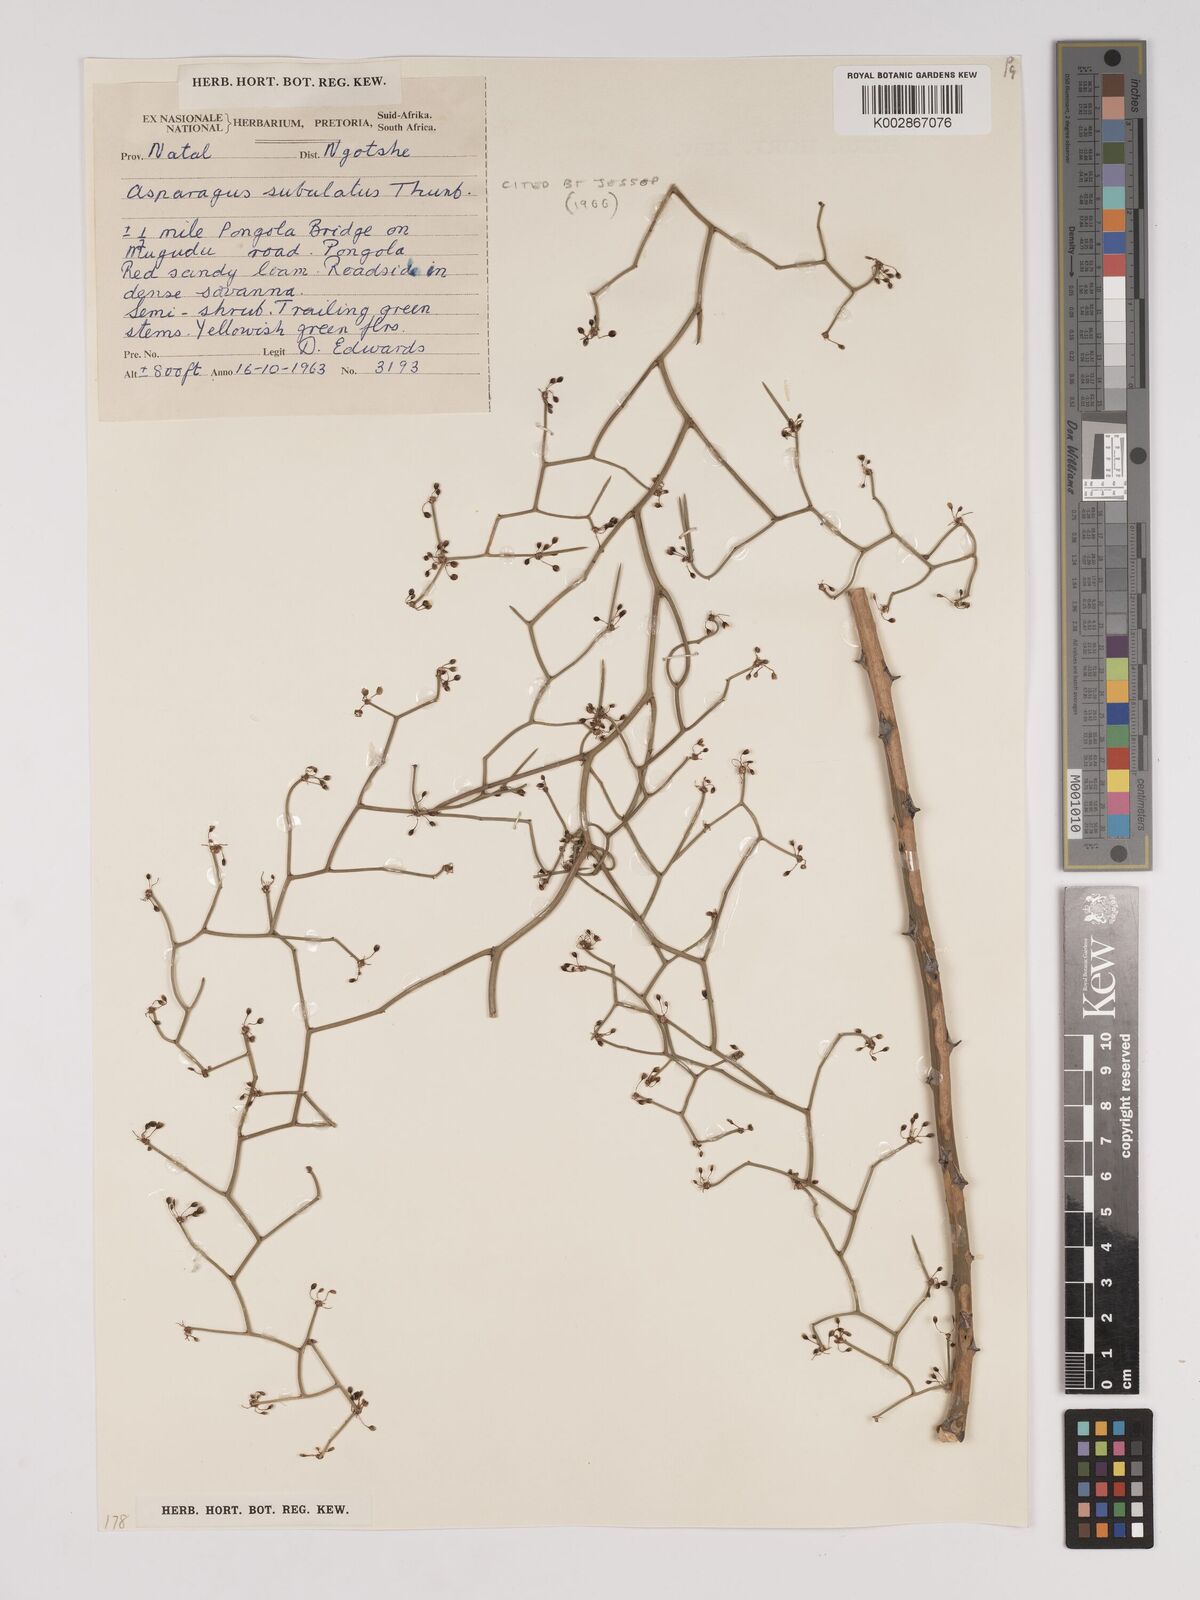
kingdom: Plantae
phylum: Tracheophyta
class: Liliopsida
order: Asparagales
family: Asparagaceae
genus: Asparagus
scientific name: Asparagus subulatus
